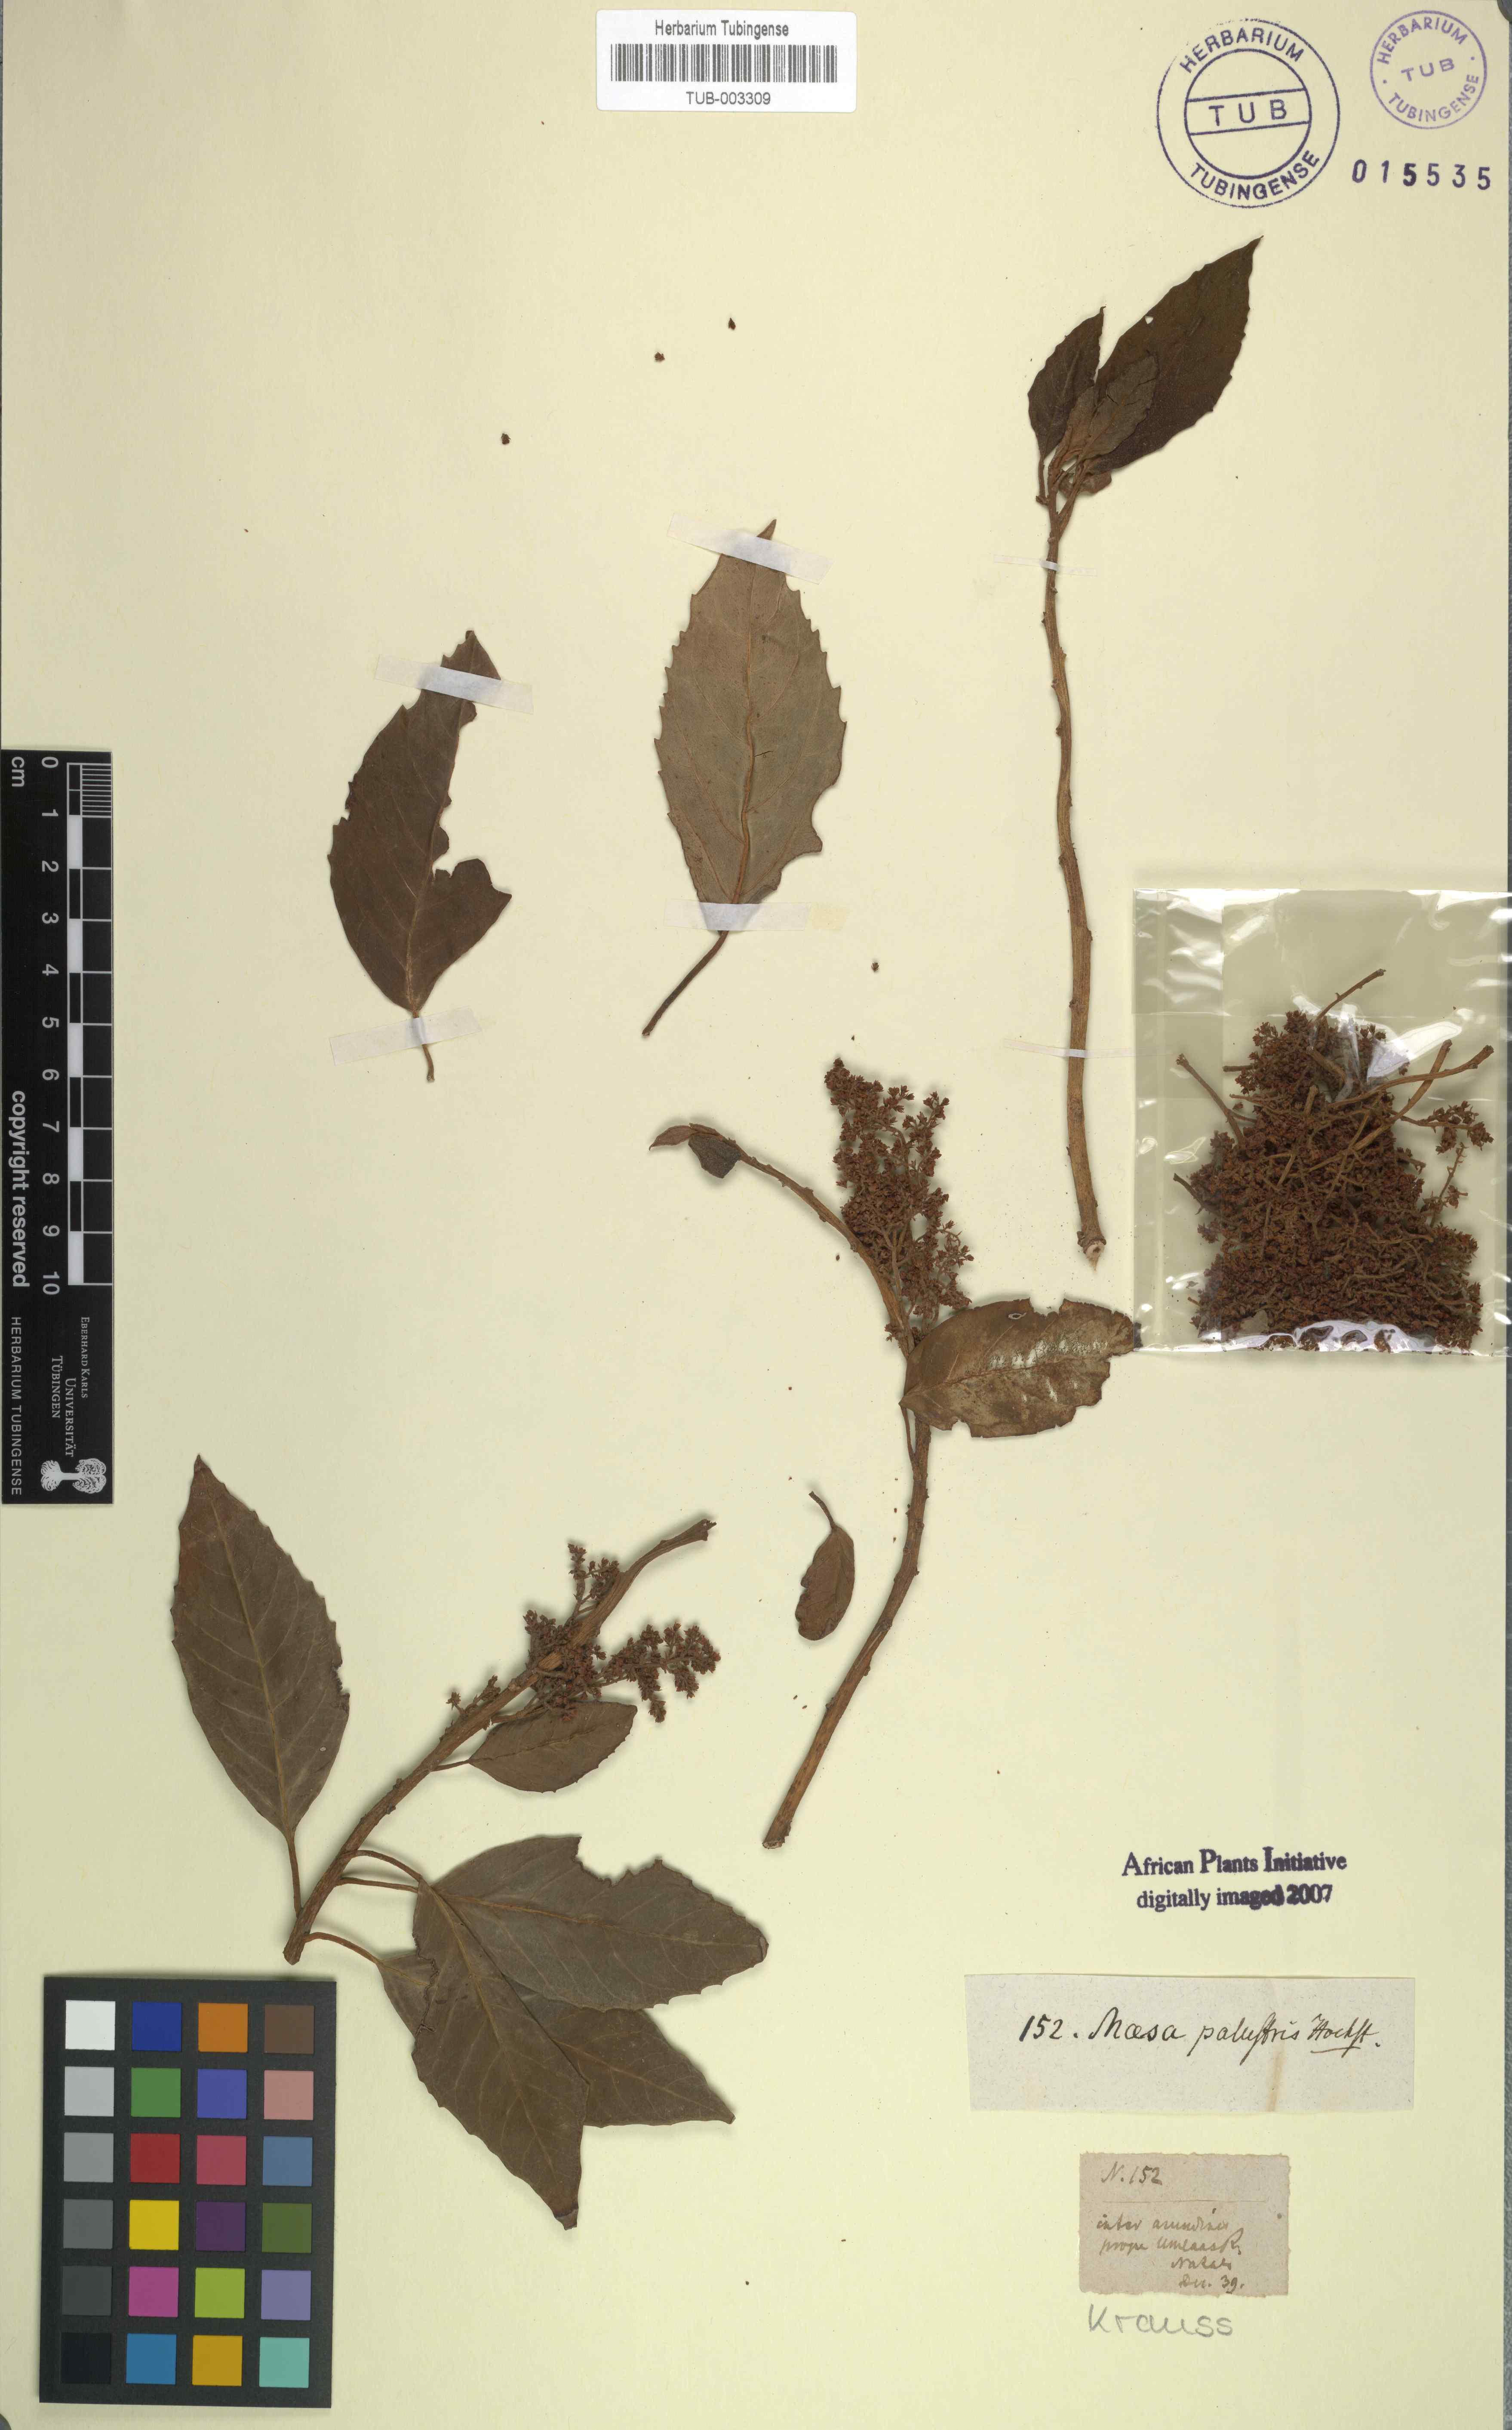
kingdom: Plantae
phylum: Tracheophyta
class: Magnoliopsida
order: Ericales
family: Primulaceae
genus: Maesa
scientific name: Maesa lanceolata
